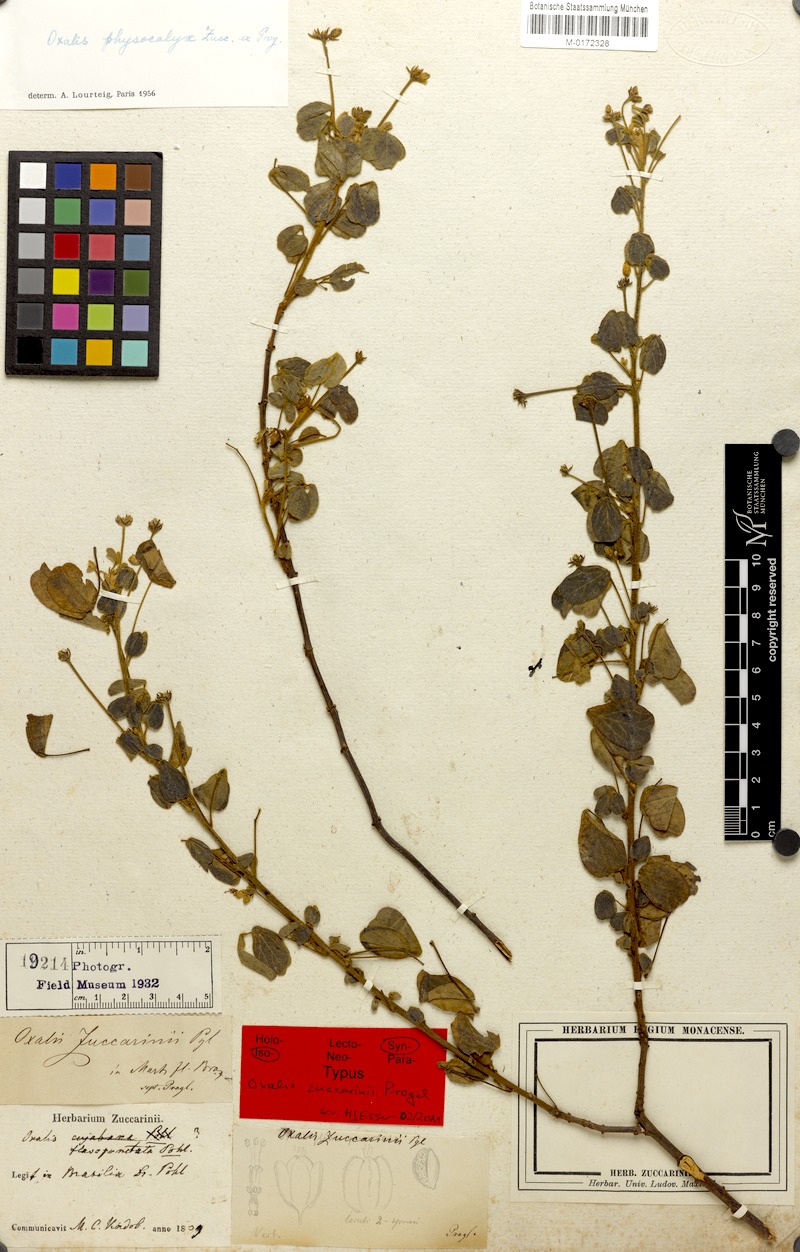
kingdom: Plantae
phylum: Tracheophyta
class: Magnoliopsida
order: Oxalidales
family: Oxalidaceae
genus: Oxalis
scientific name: Oxalis physocalyx
